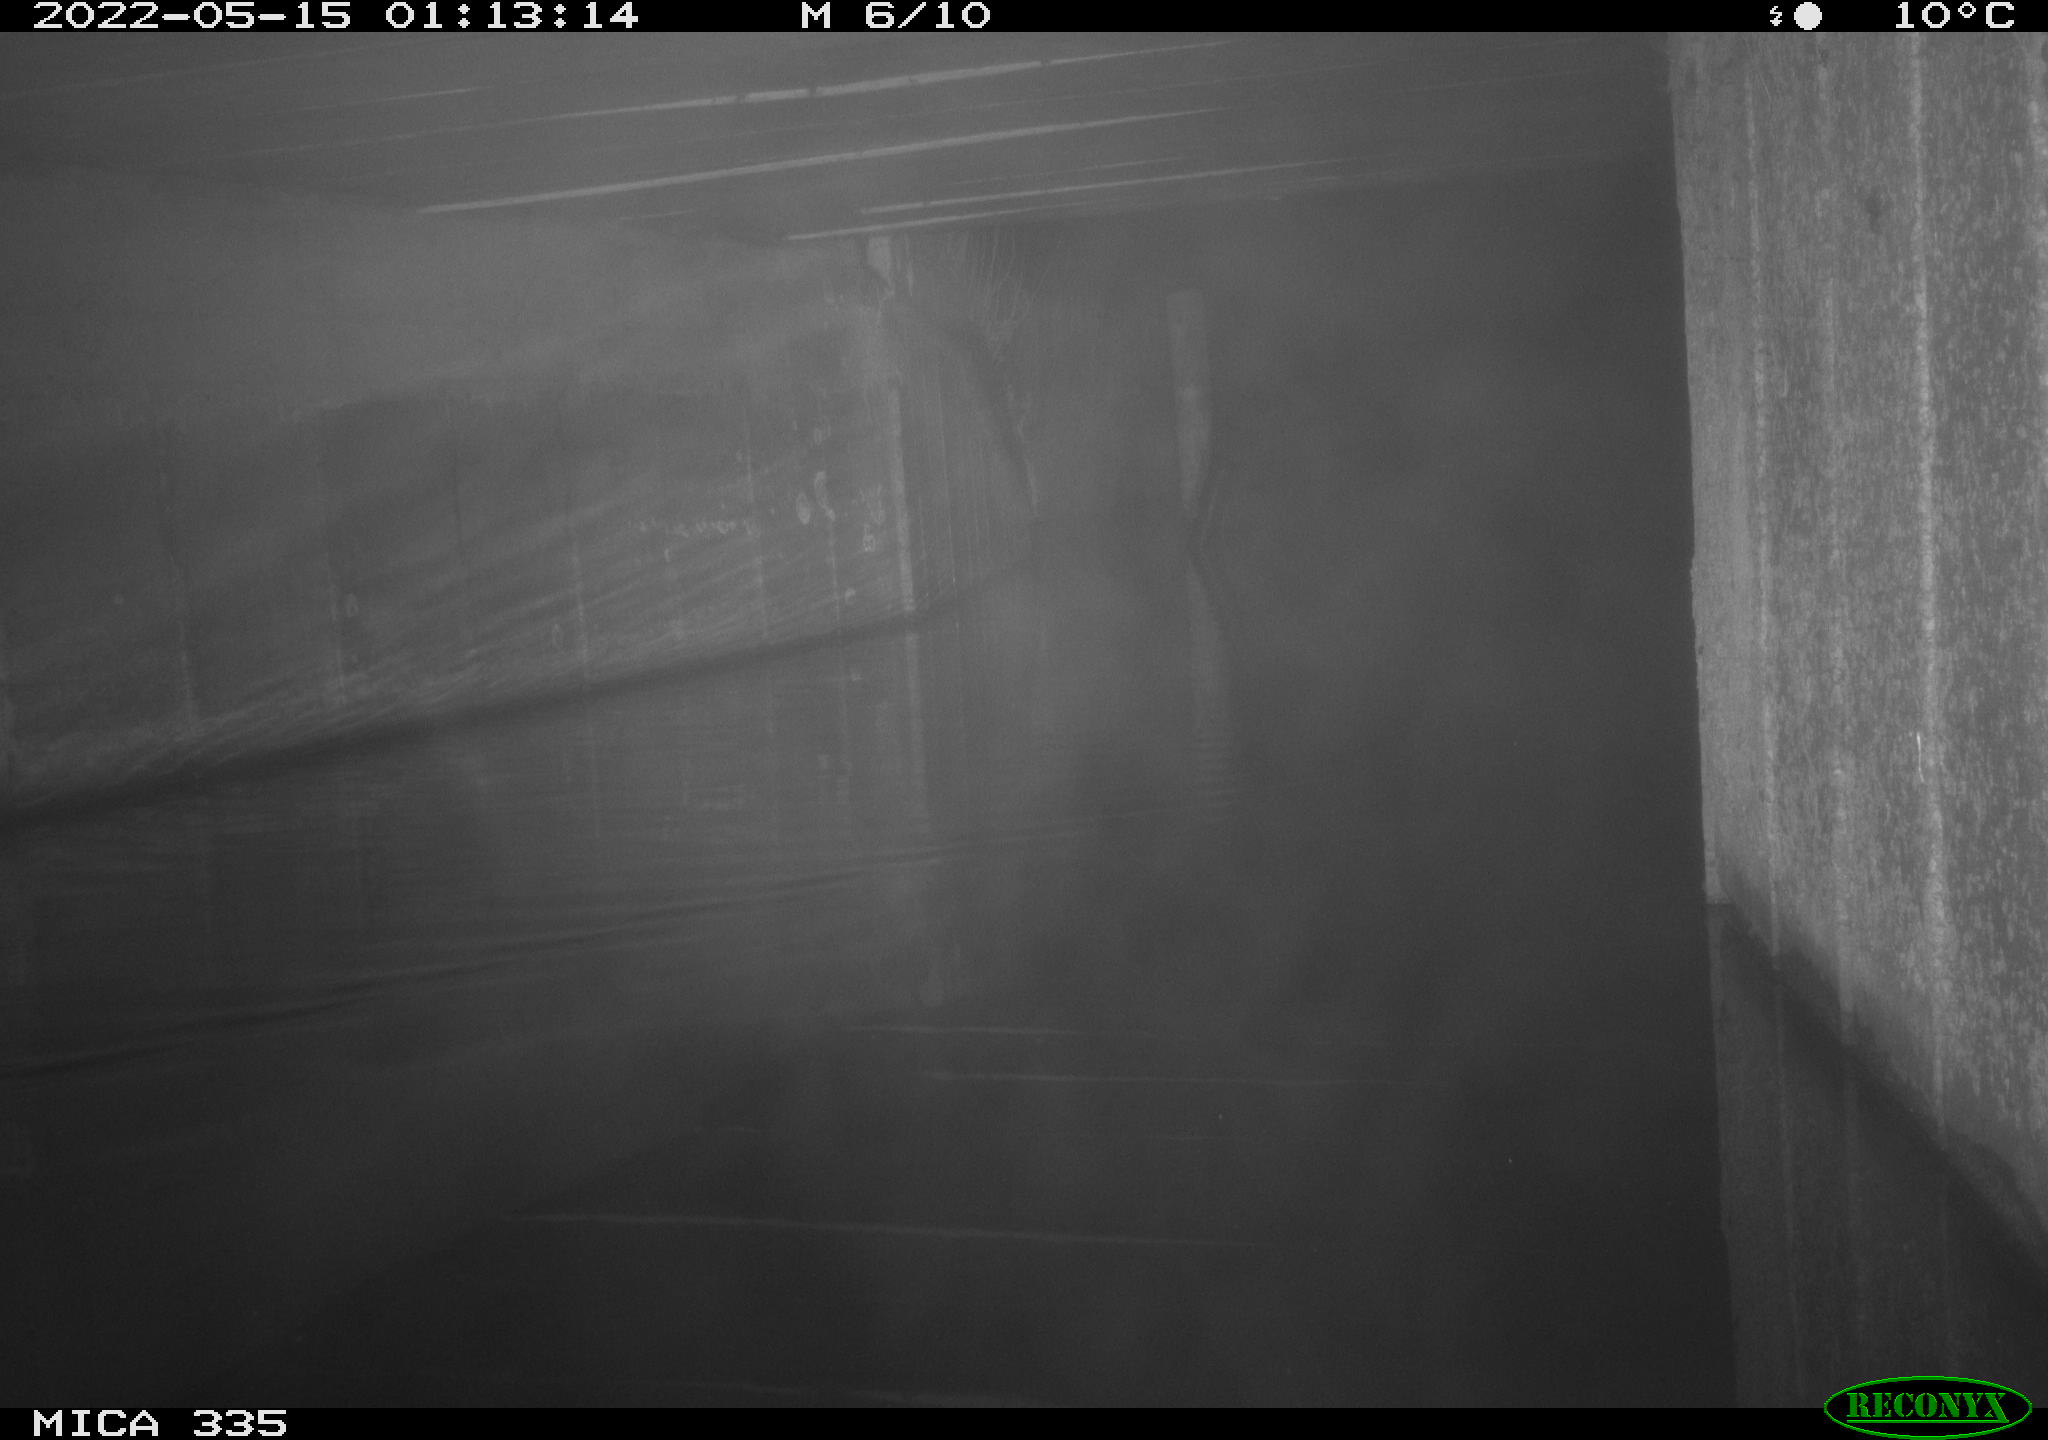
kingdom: Animalia
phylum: Chordata
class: Aves
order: Anseriformes
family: Anatidae
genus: Anas
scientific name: Anas platyrhynchos
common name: Mallard
